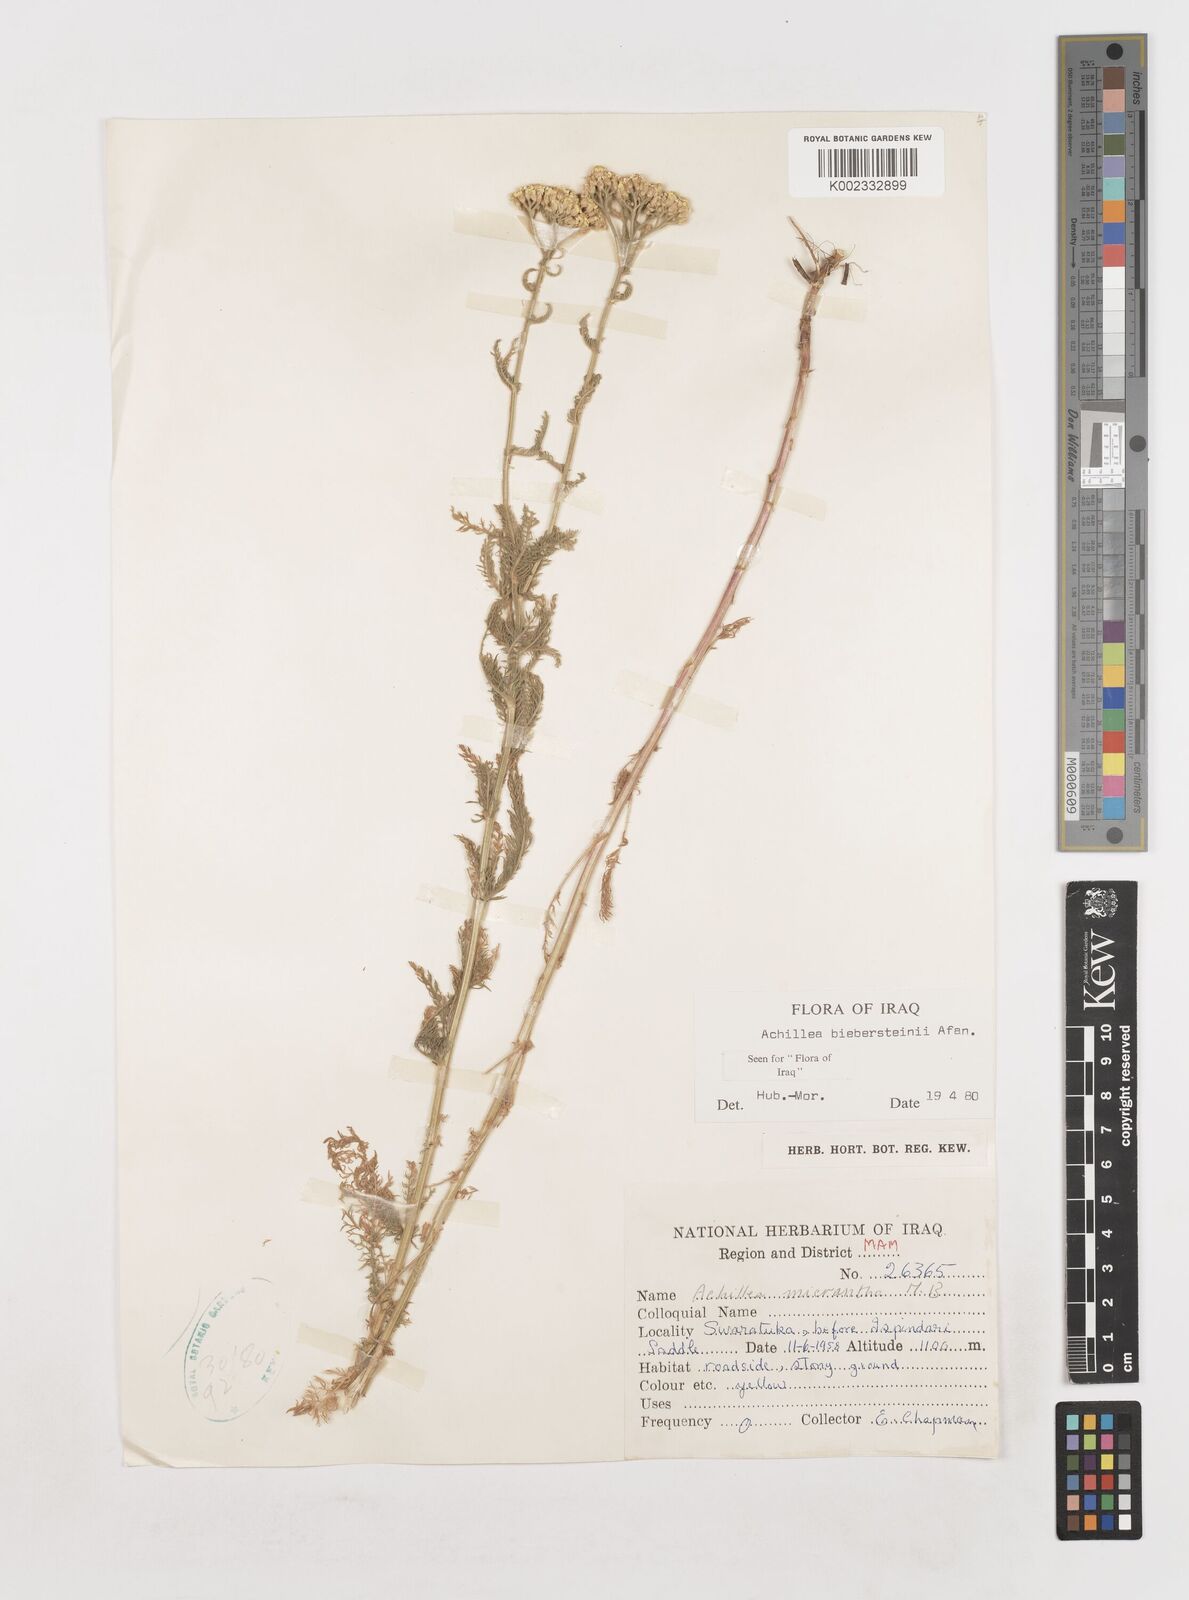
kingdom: Plantae
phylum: Tracheophyta
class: Magnoliopsida
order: Asterales
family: Asteraceae
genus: Achillea
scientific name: Achillea arabica
